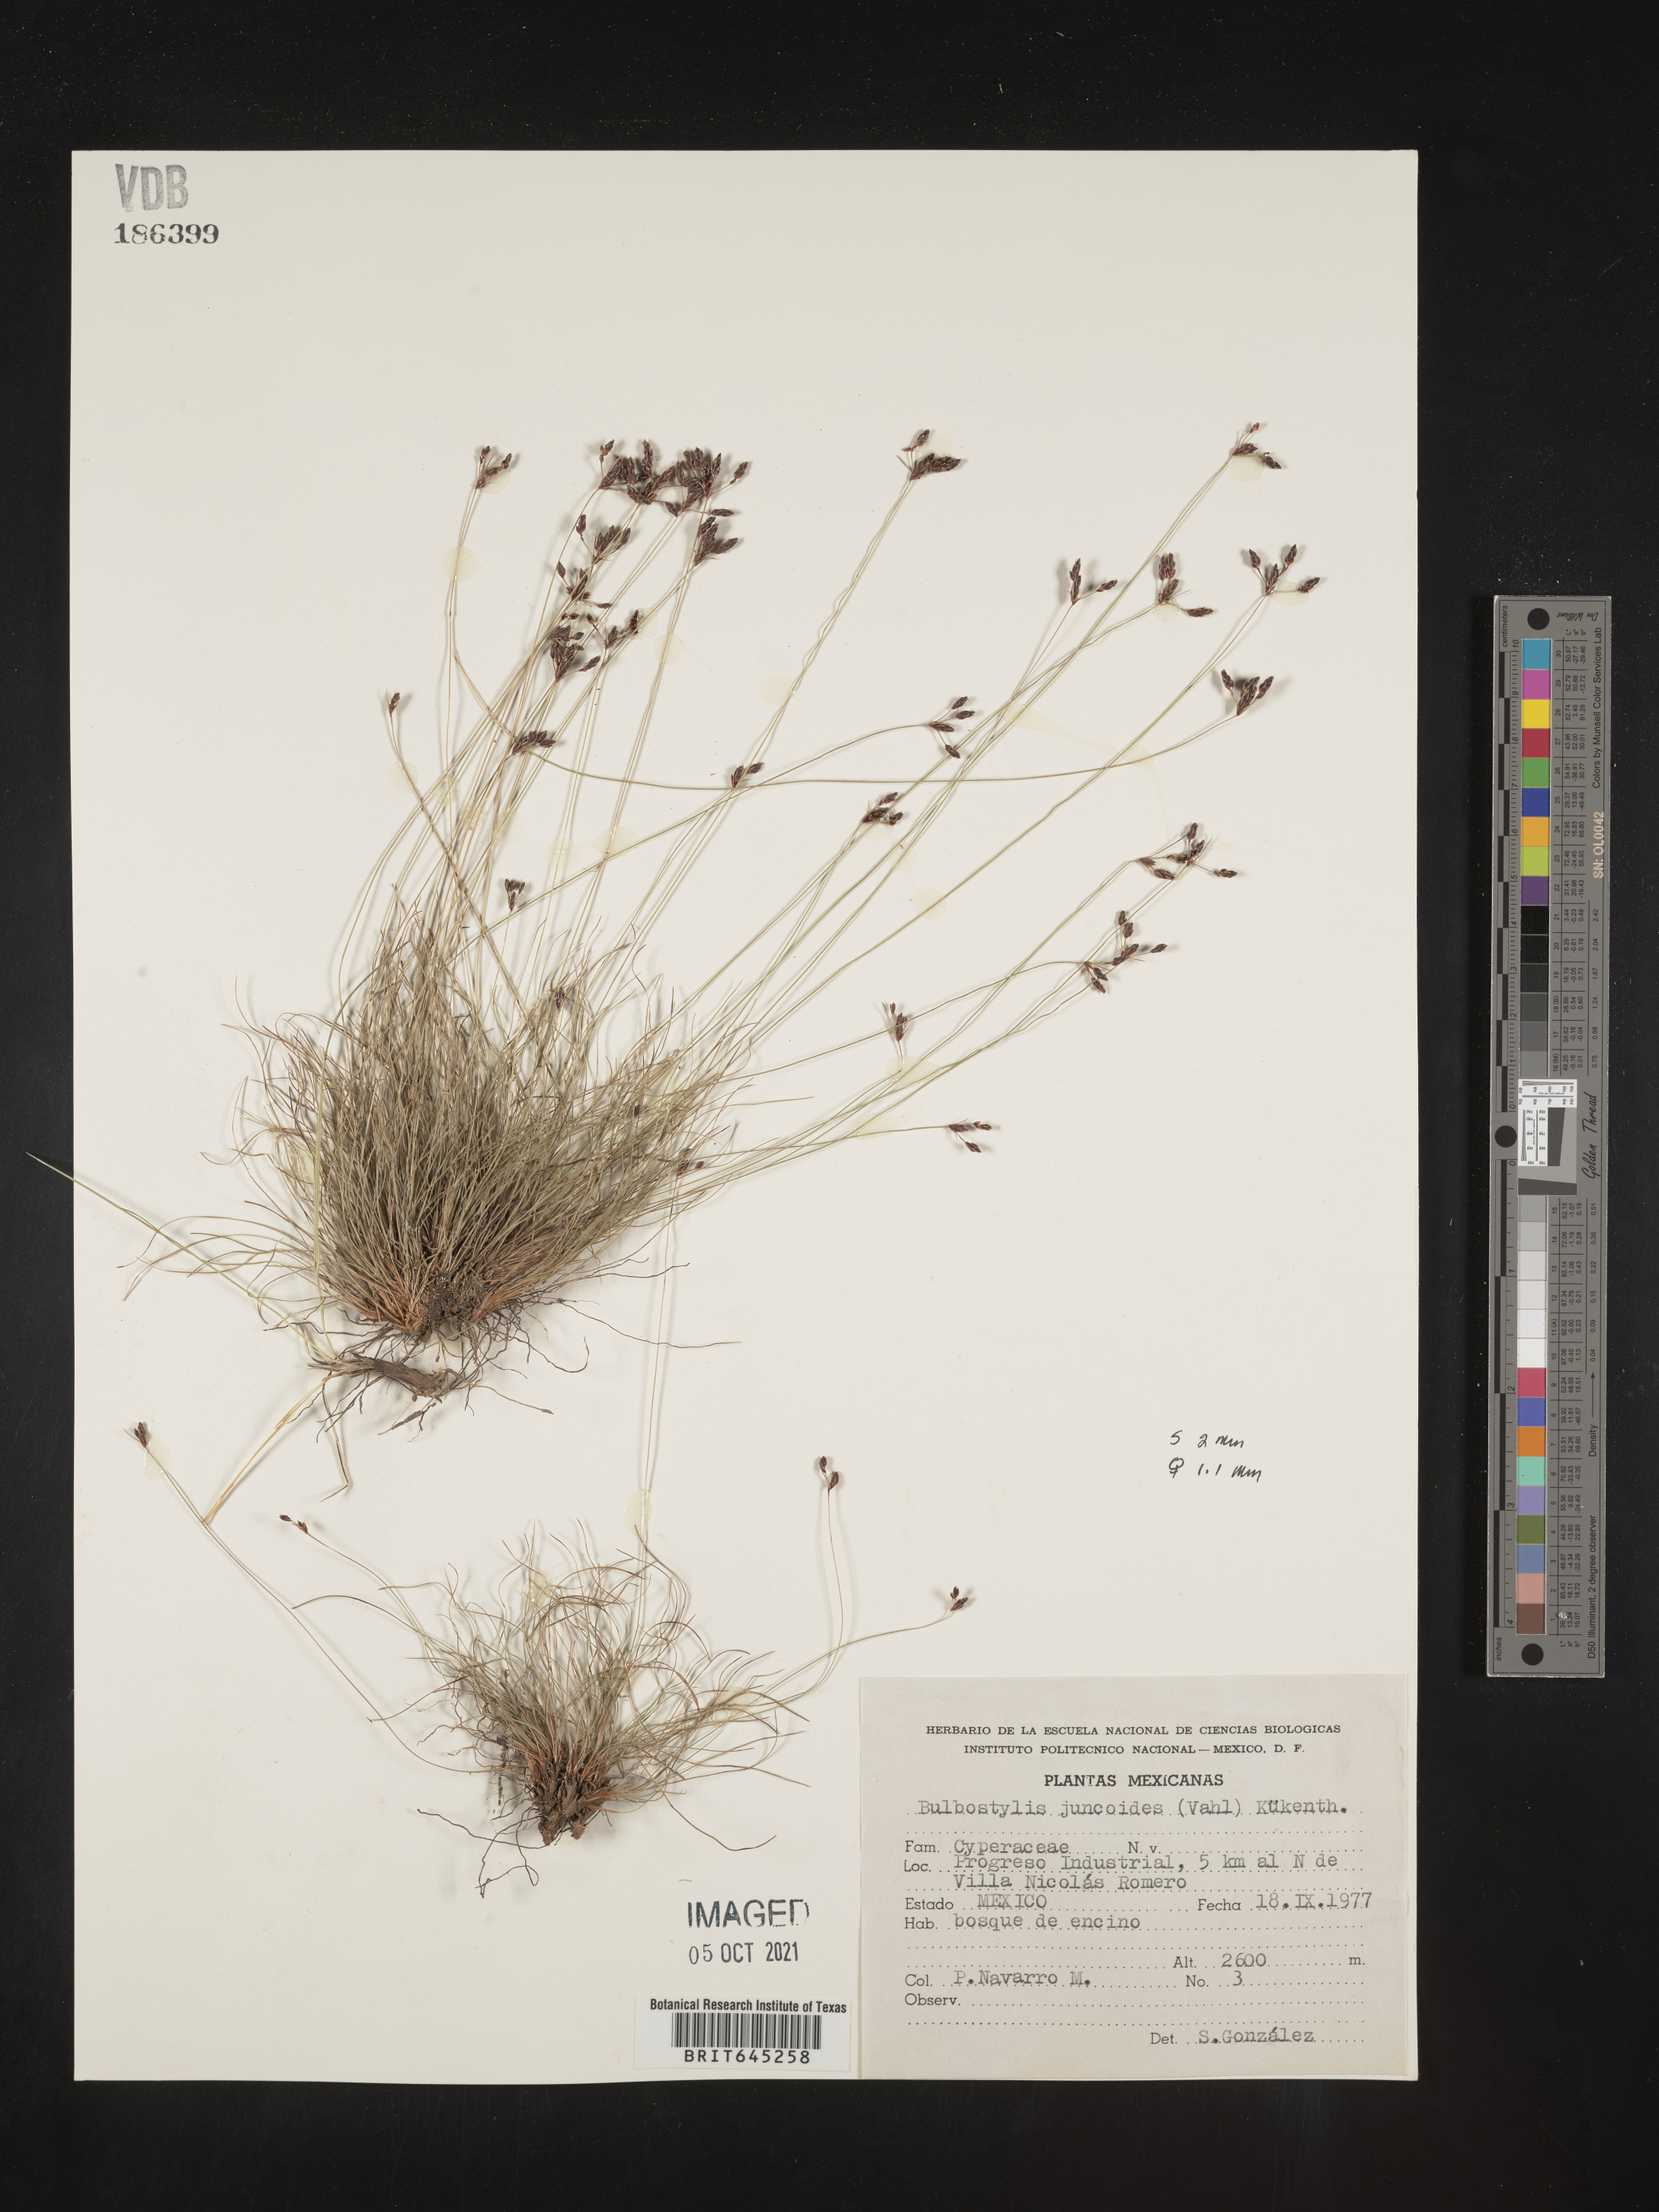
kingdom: Plantae
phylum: Tracheophyta
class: Liliopsida
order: Poales
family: Cyperaceae
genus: Bulbostylis
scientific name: Bulbostylis juncoides
